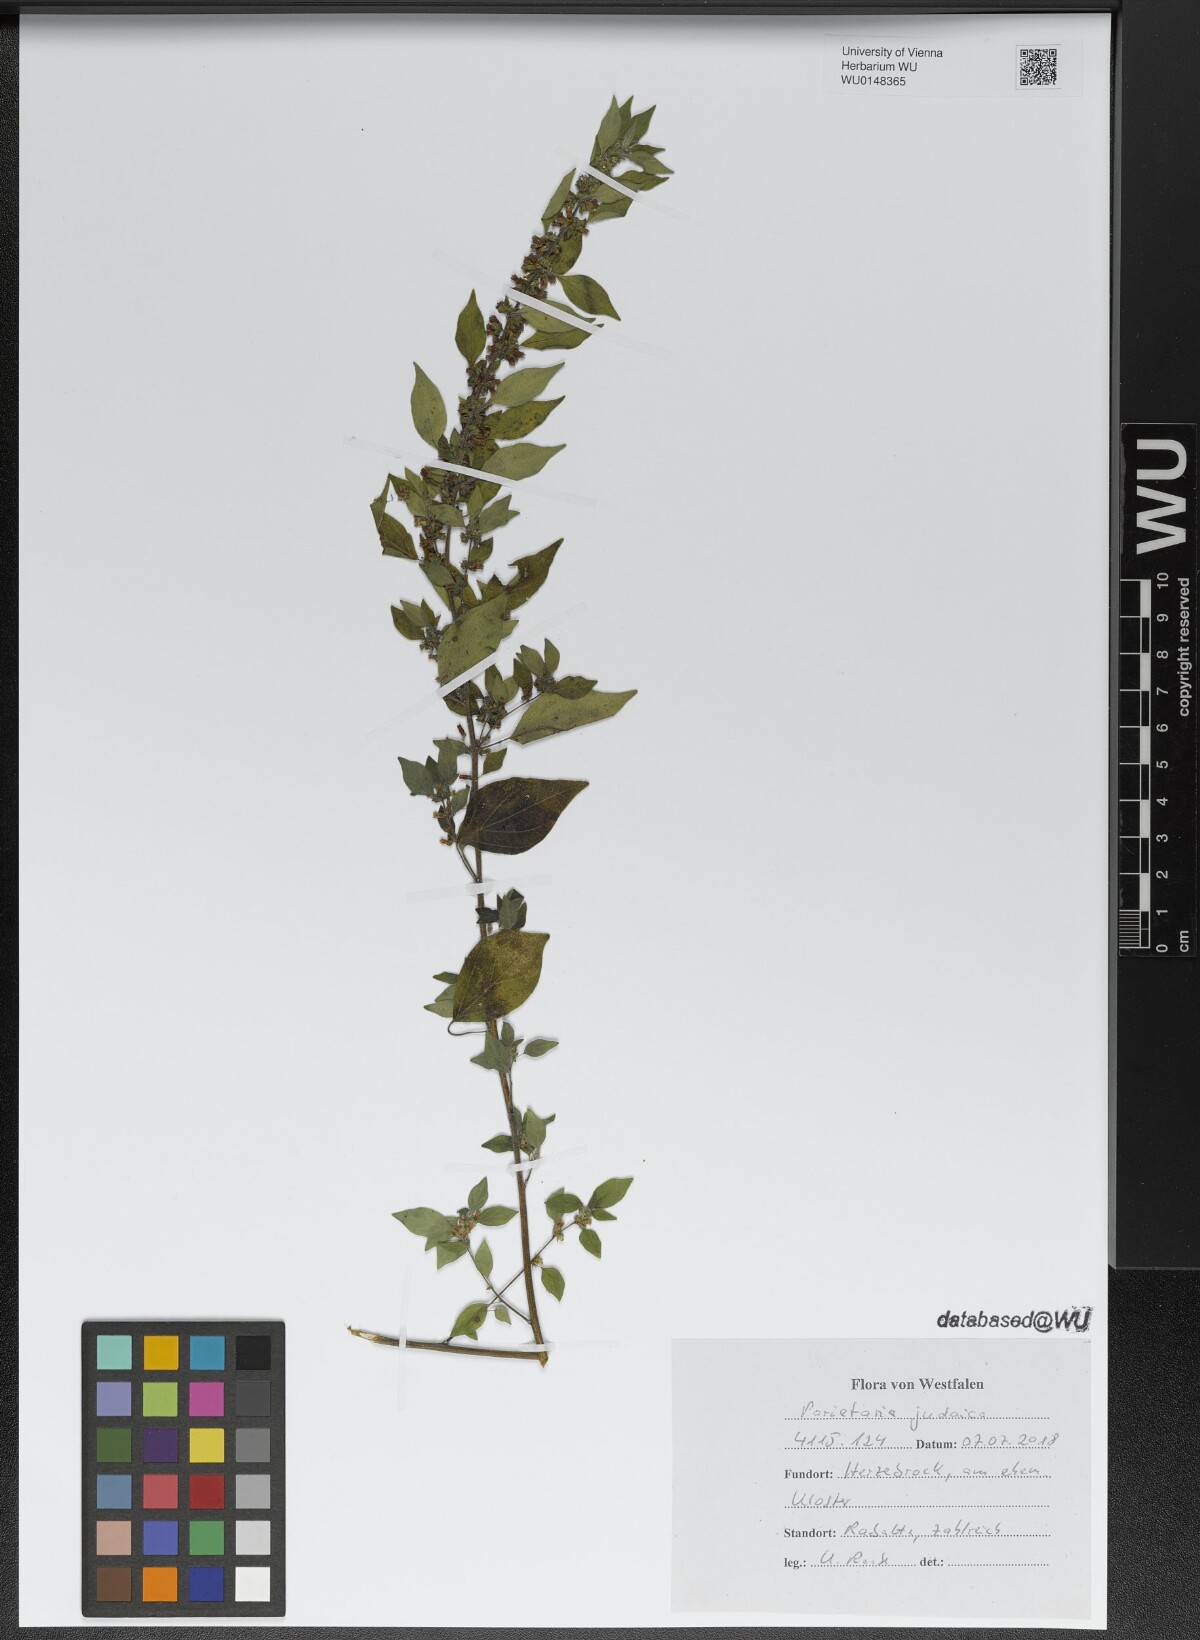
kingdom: Plantae
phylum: Tracheophyta
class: Magnoliopsida
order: Rosales
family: Urticaceae
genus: Parietaria
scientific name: Parietaria judaica
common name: Pellitory-of-the-wall
